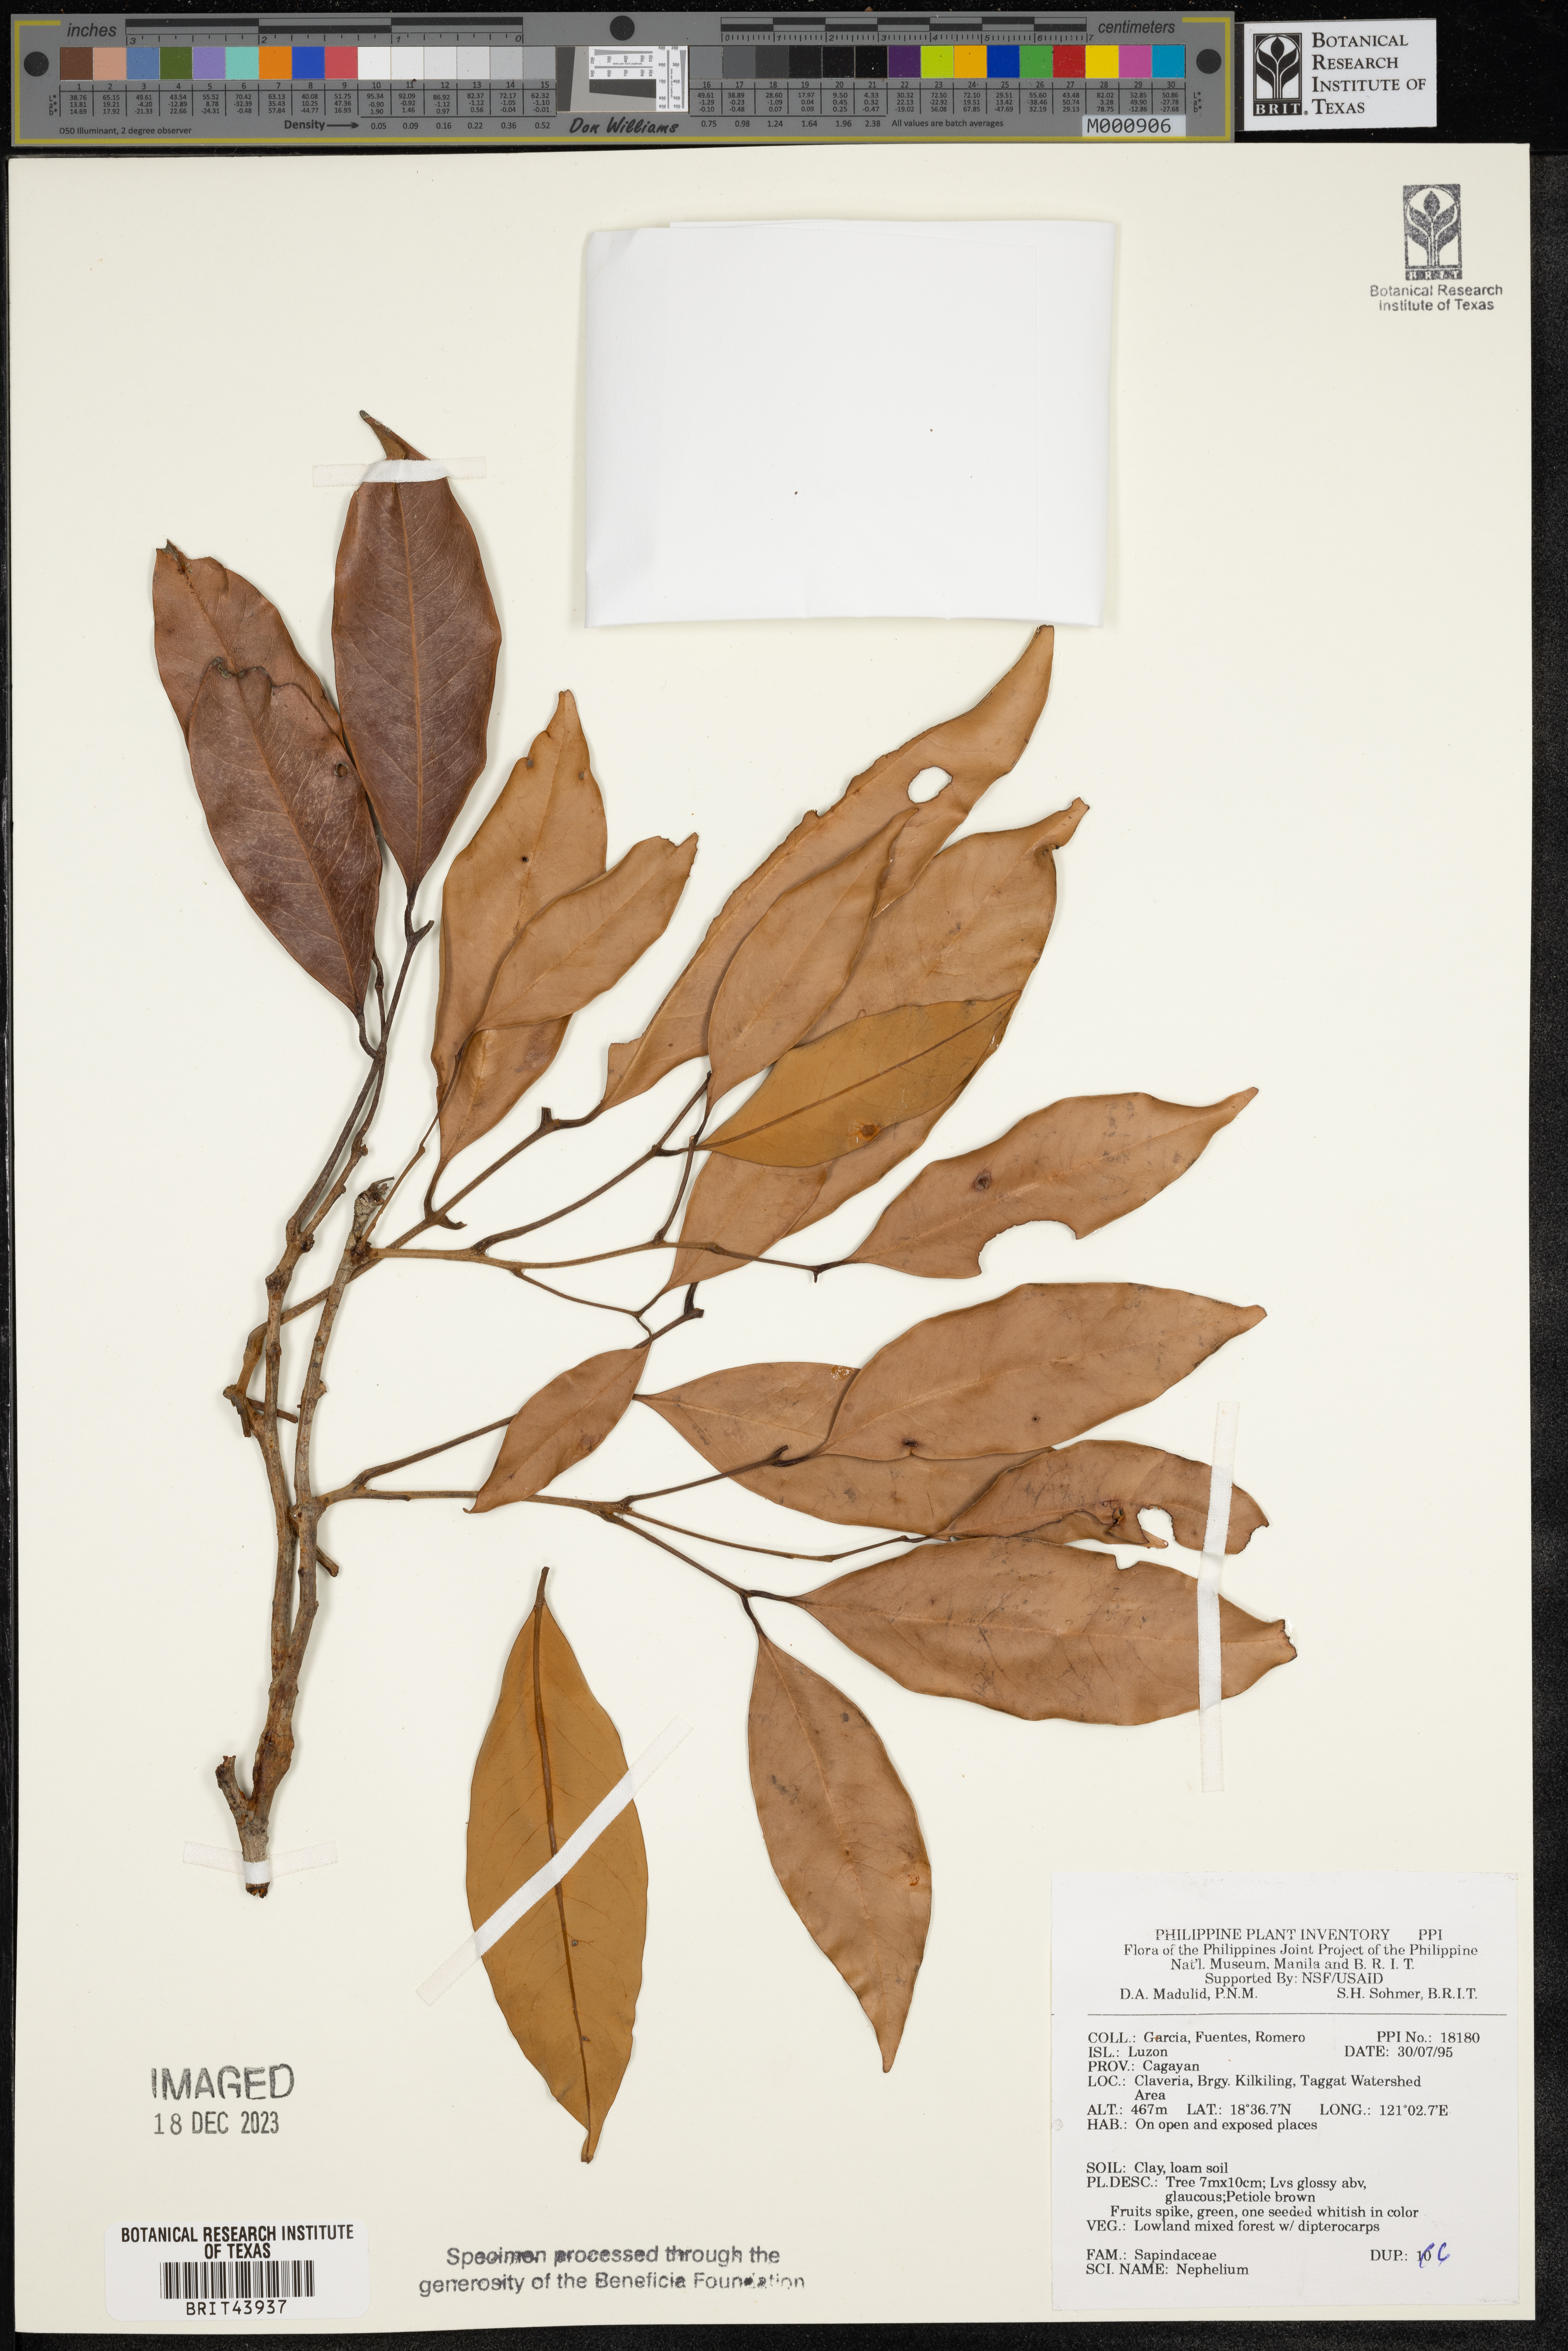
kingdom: Plantae
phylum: Tracheophyta
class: Magnoliopsida
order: Sapindales
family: Sapindaceae
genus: Nephelium
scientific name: Nephelium
